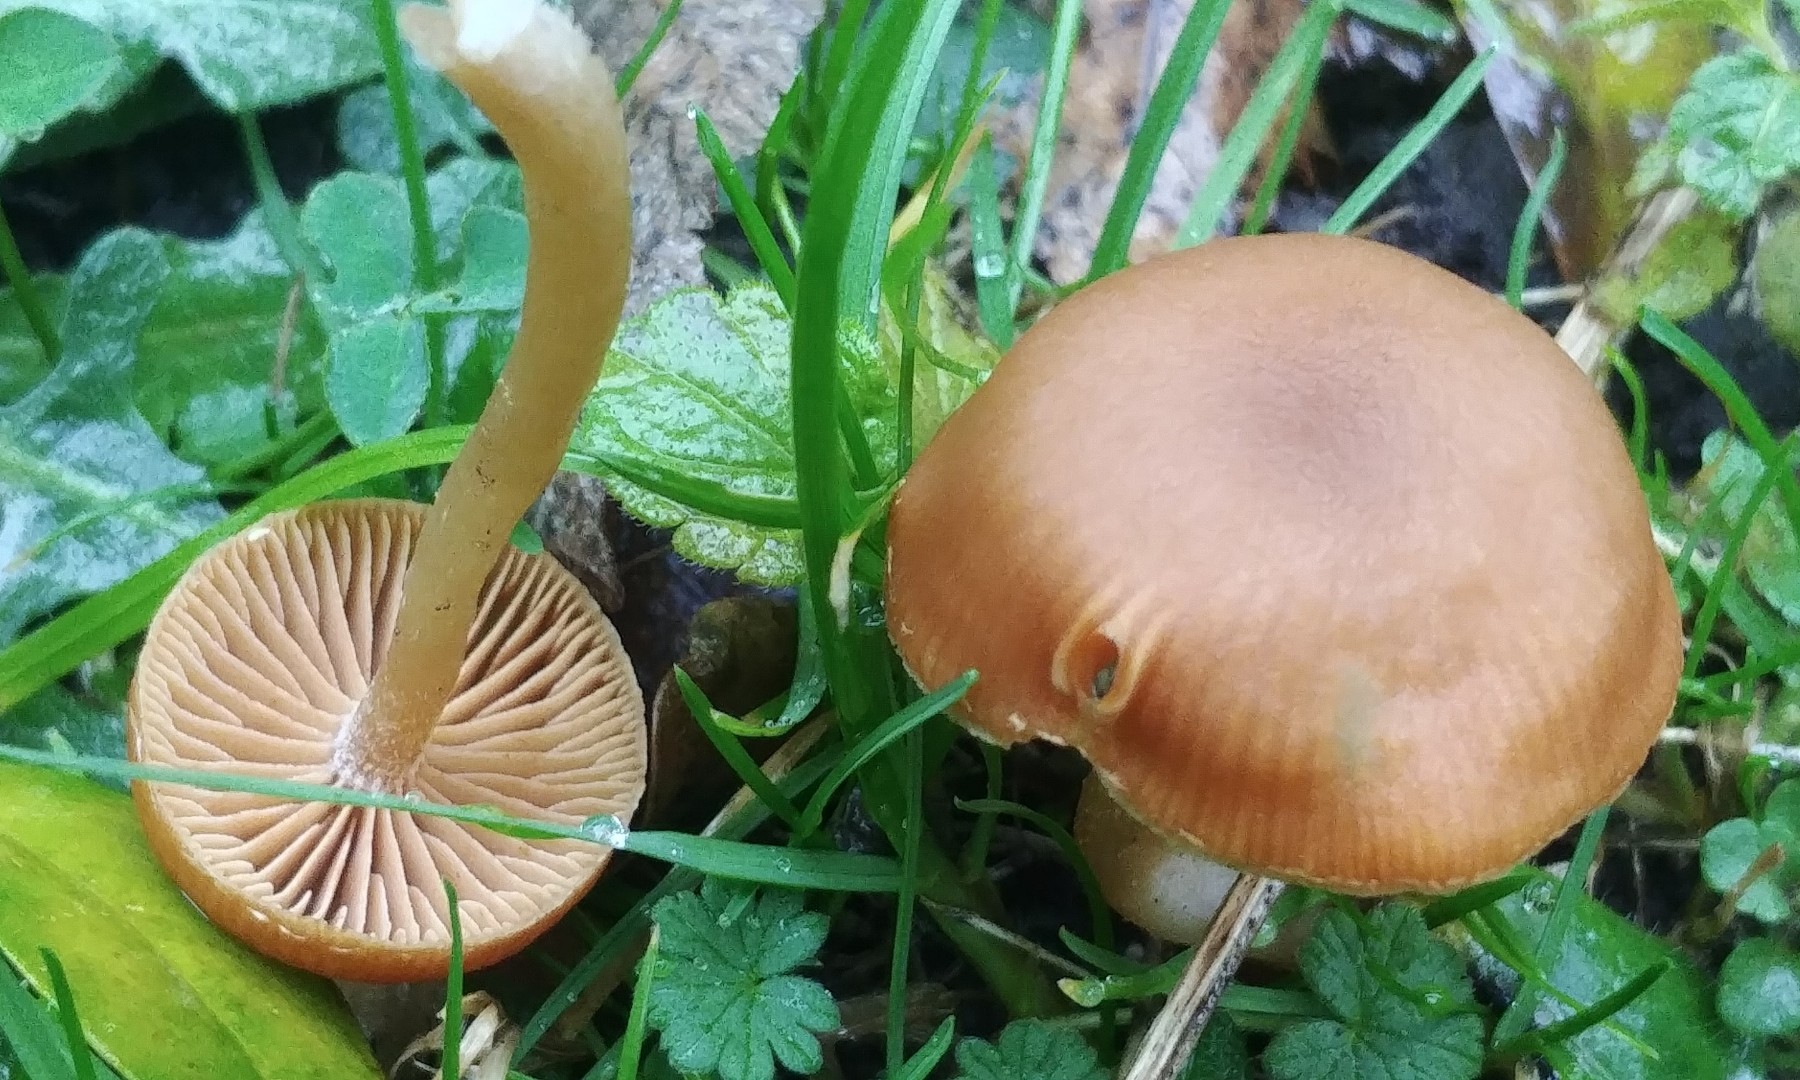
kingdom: Fungi
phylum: Basidiomycota
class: Agaricomycetes
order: Agaricales
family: Tubariaceae
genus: Tubaria
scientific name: Tubaria furfuracea
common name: kliddet fnughat
